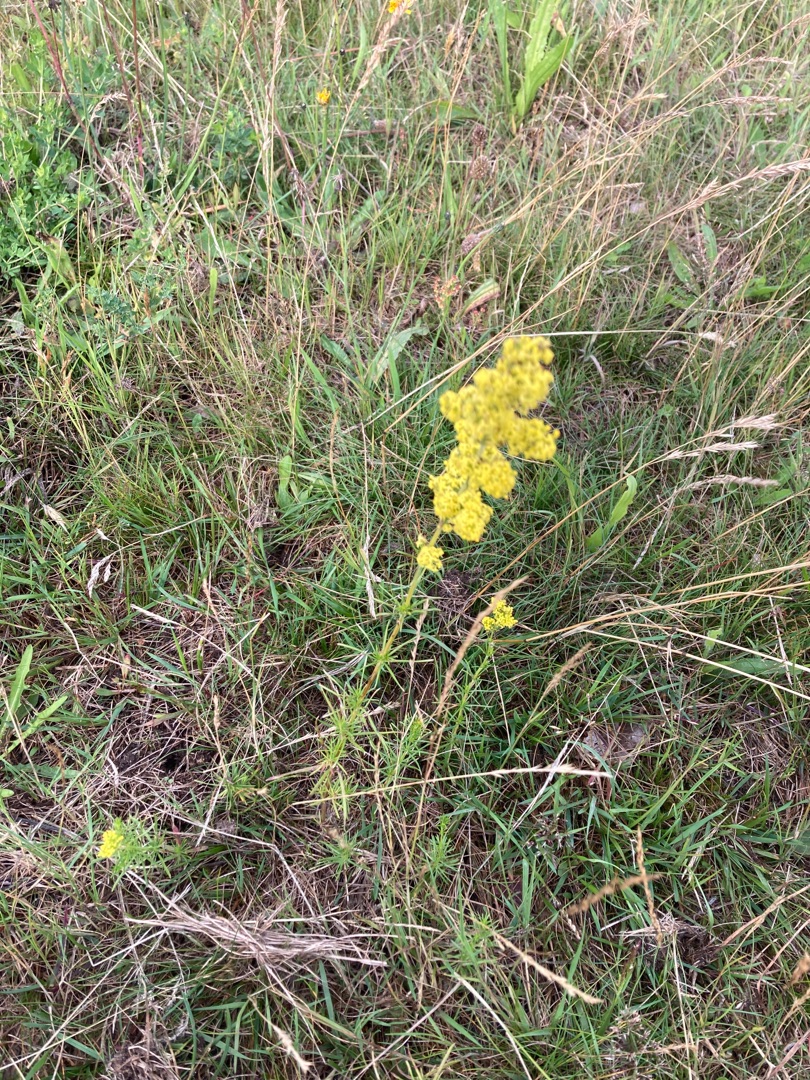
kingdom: Plantae
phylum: Tracheophyta
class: Magnoliopsida
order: Gentianales
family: Rubiaceae
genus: Galium
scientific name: Galium verum
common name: Gul snerre
